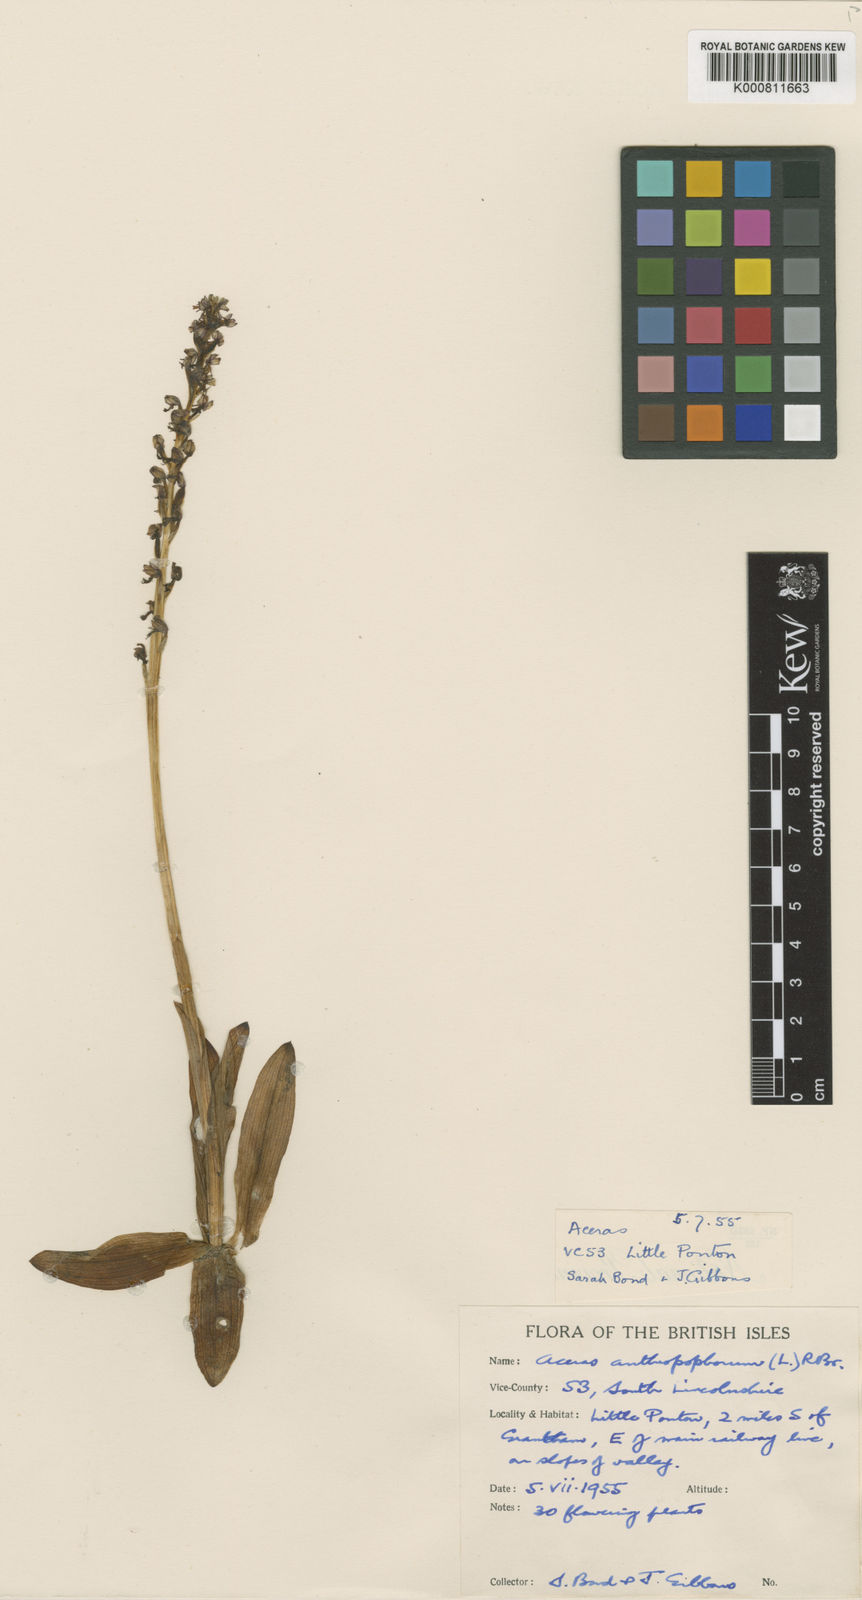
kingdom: Plantae
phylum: Tracheophyta
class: Liliopsida
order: Asparagales
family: Orchidaceae
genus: Orchis
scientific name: Orchis
